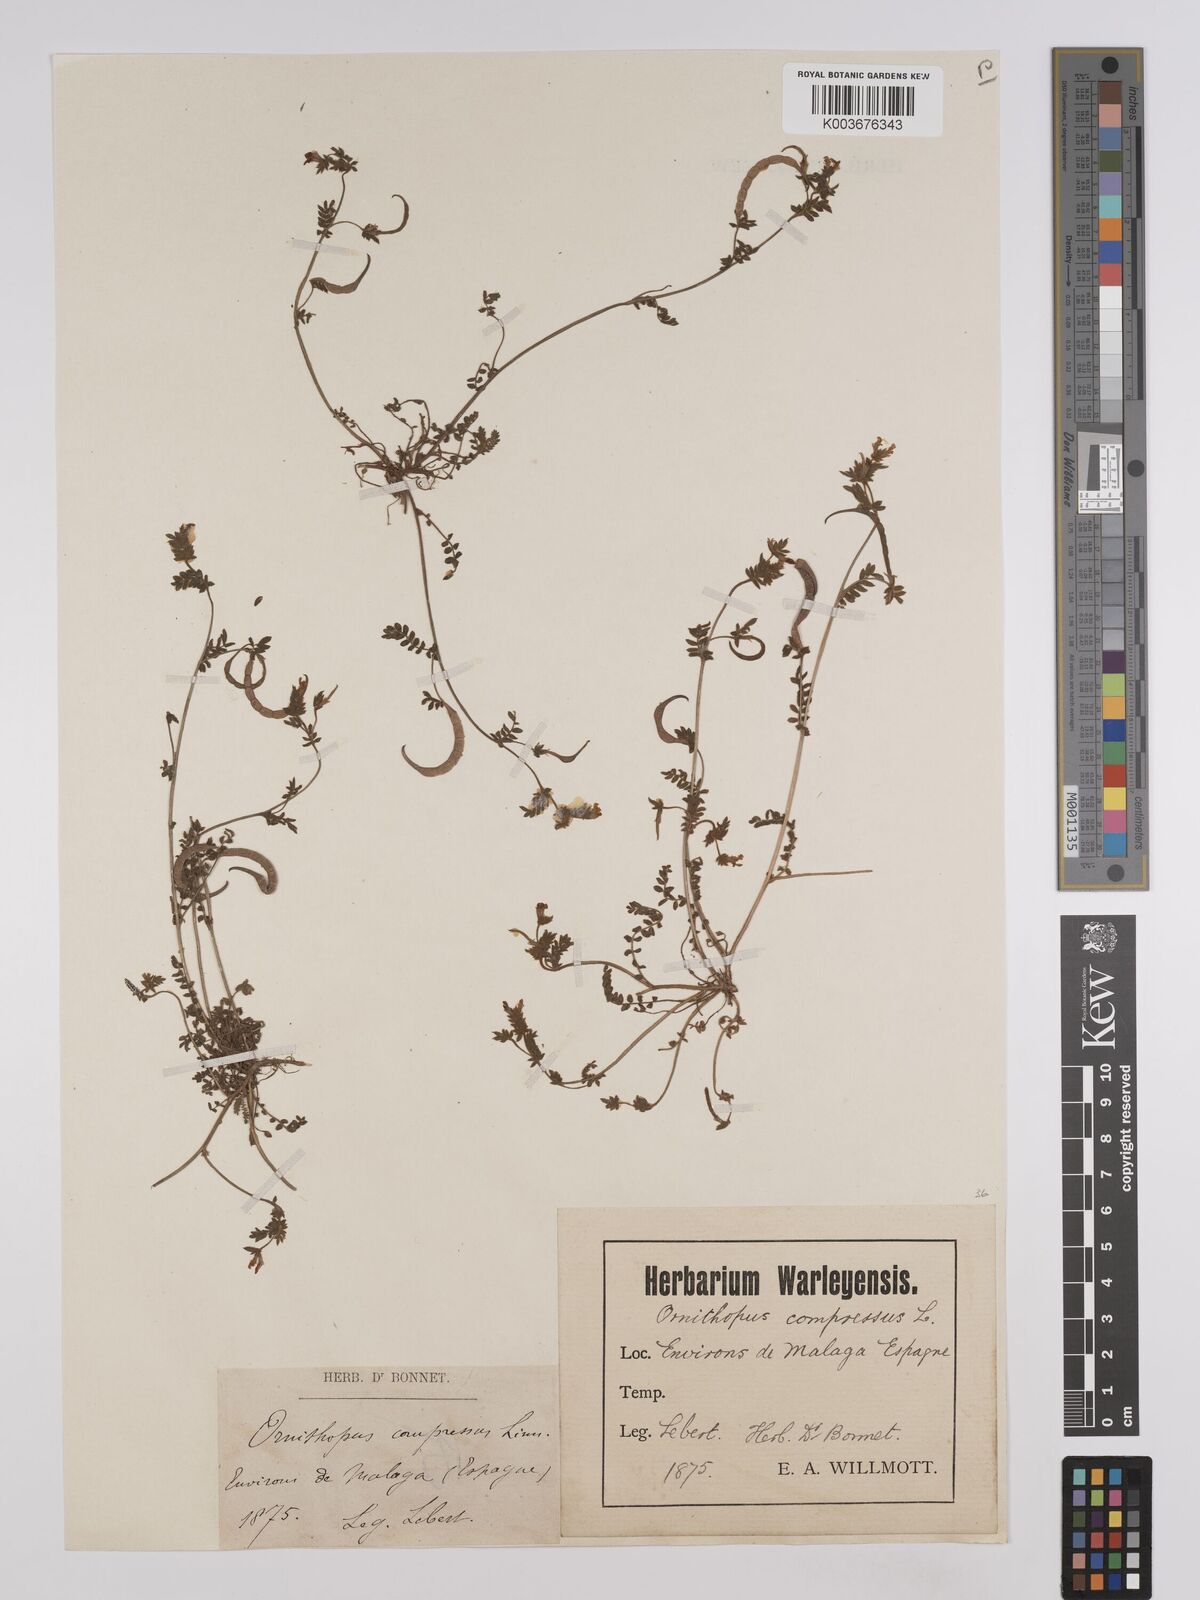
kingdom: Plantae
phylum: Tracheophyta
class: Magnoliopsida
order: Fabales
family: Fabaceae
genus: Ornithopus
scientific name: Ornithopus compressus
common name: Yellow serradella
